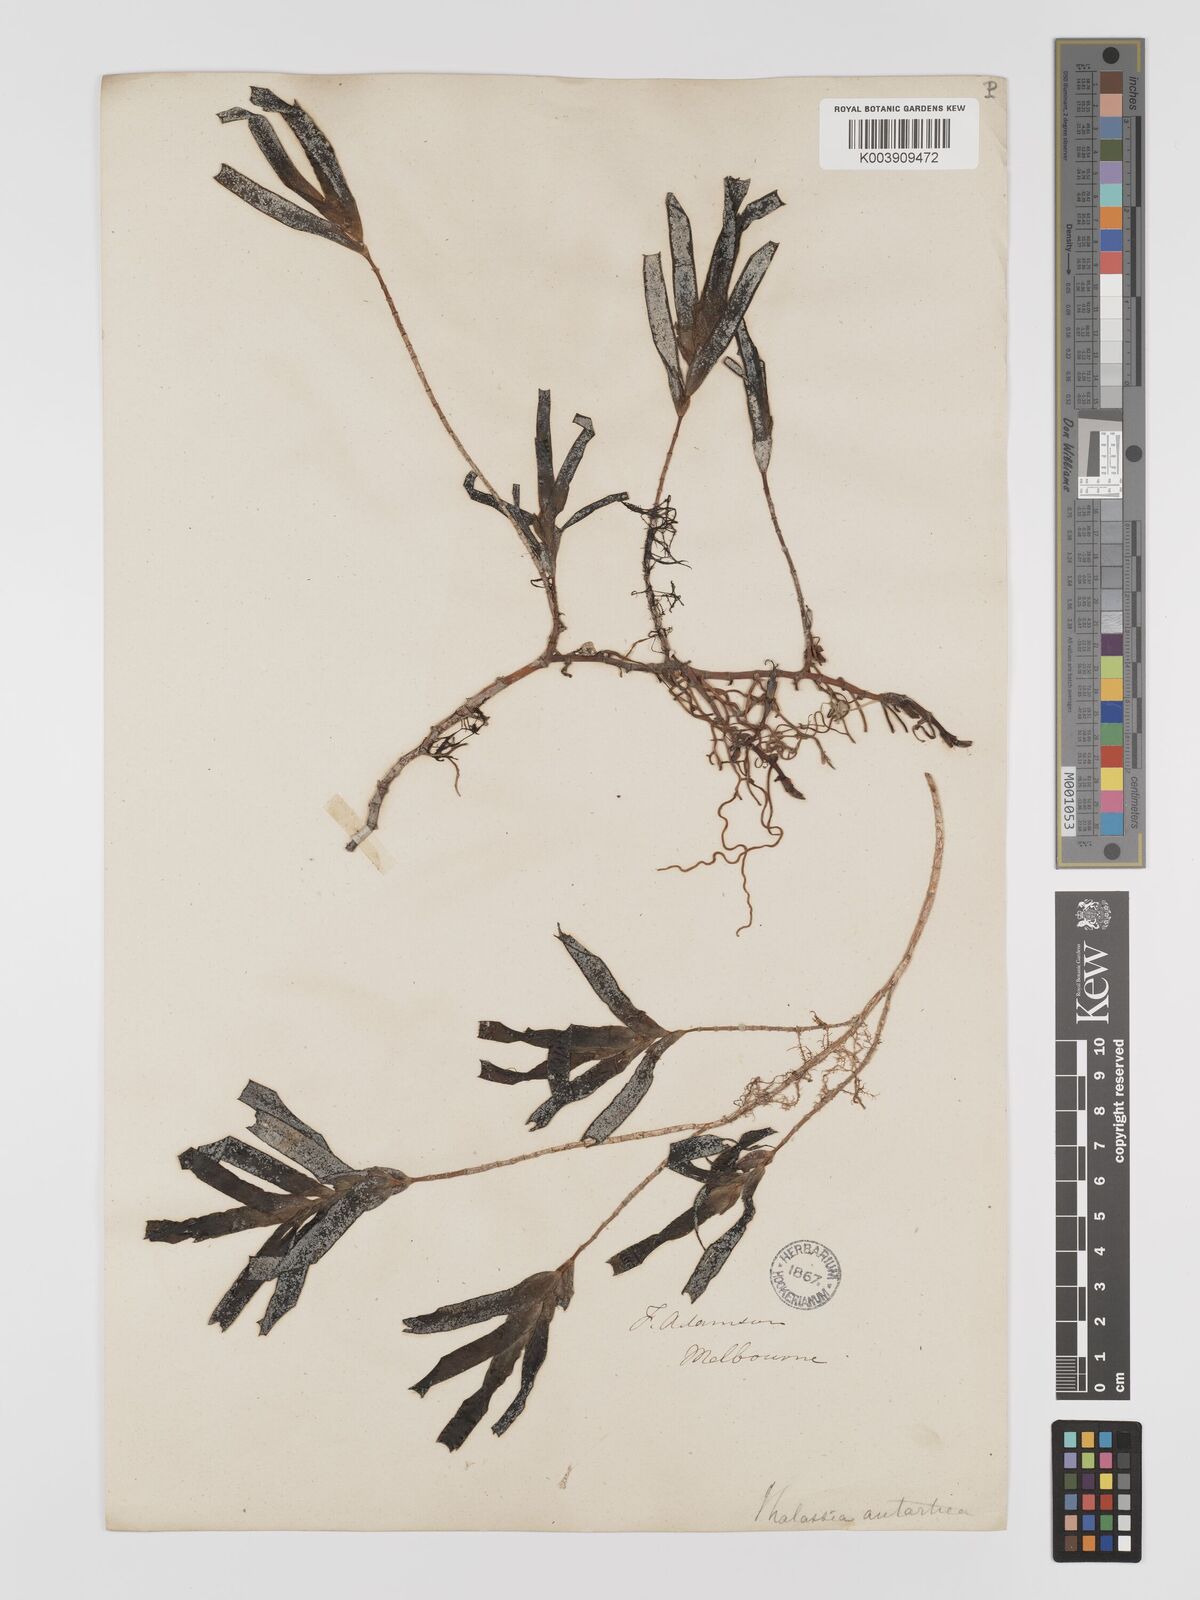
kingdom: Plantae
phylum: Tracheophyta
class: Liliopsida
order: Alismatales
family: Cymodoceaceae
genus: Amphibolis
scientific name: Amphibolis antarctica
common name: Species code: aa
